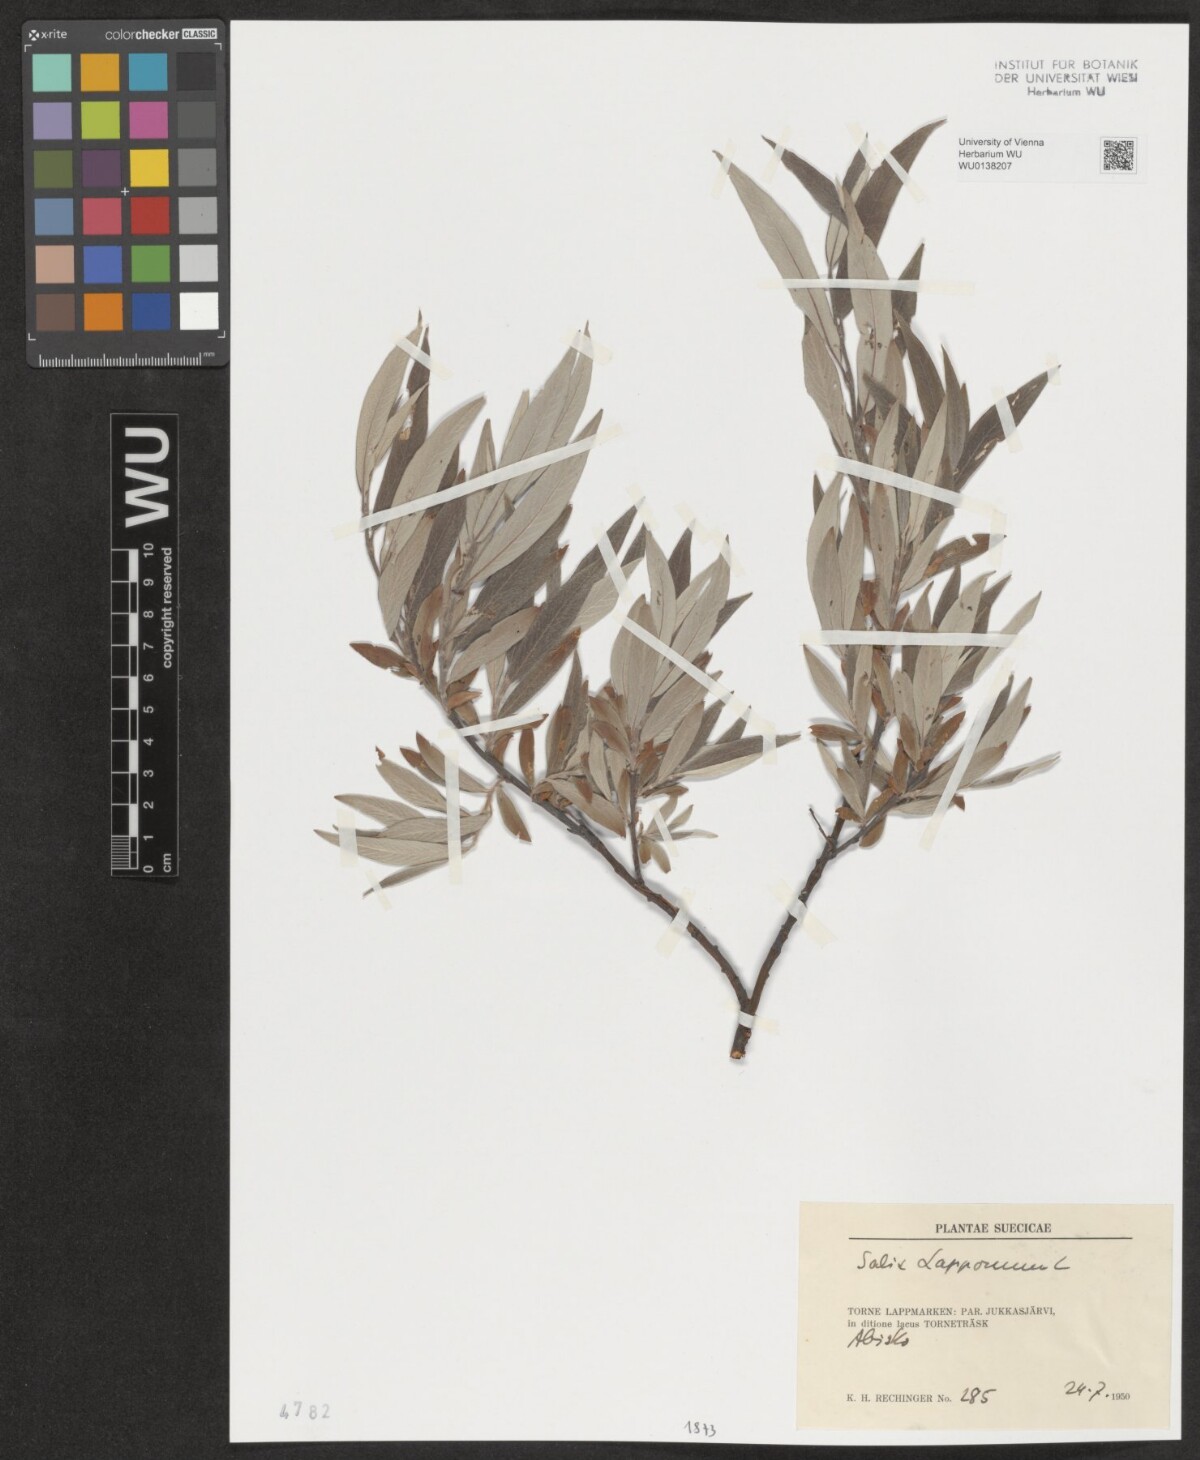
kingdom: Plantae
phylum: Tracheophyta
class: Magnoliopsida
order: Malpighiales
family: Salicaceae
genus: Salix
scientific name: Salix lapponum
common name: Downy willow
